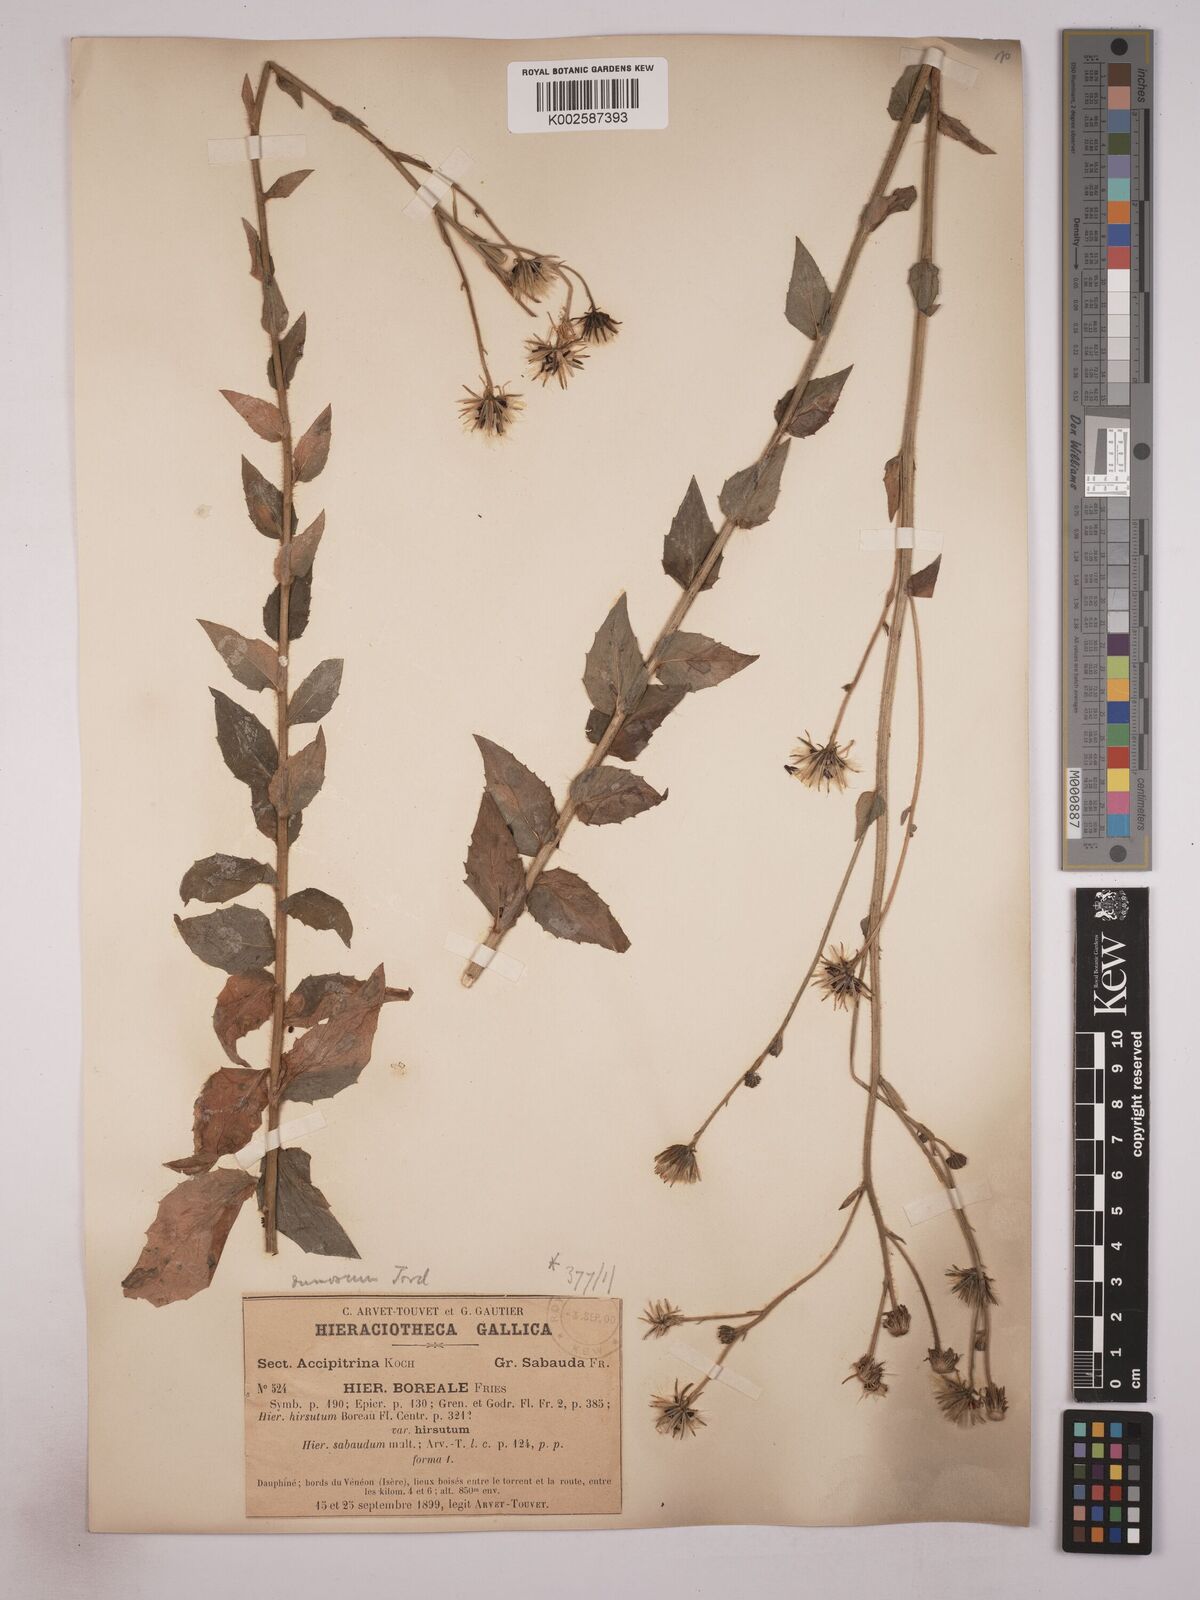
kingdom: Plantae
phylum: Tracheophyta
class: Magnoliopsida
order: Asterales
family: Asteraceae
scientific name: Asteraceae
